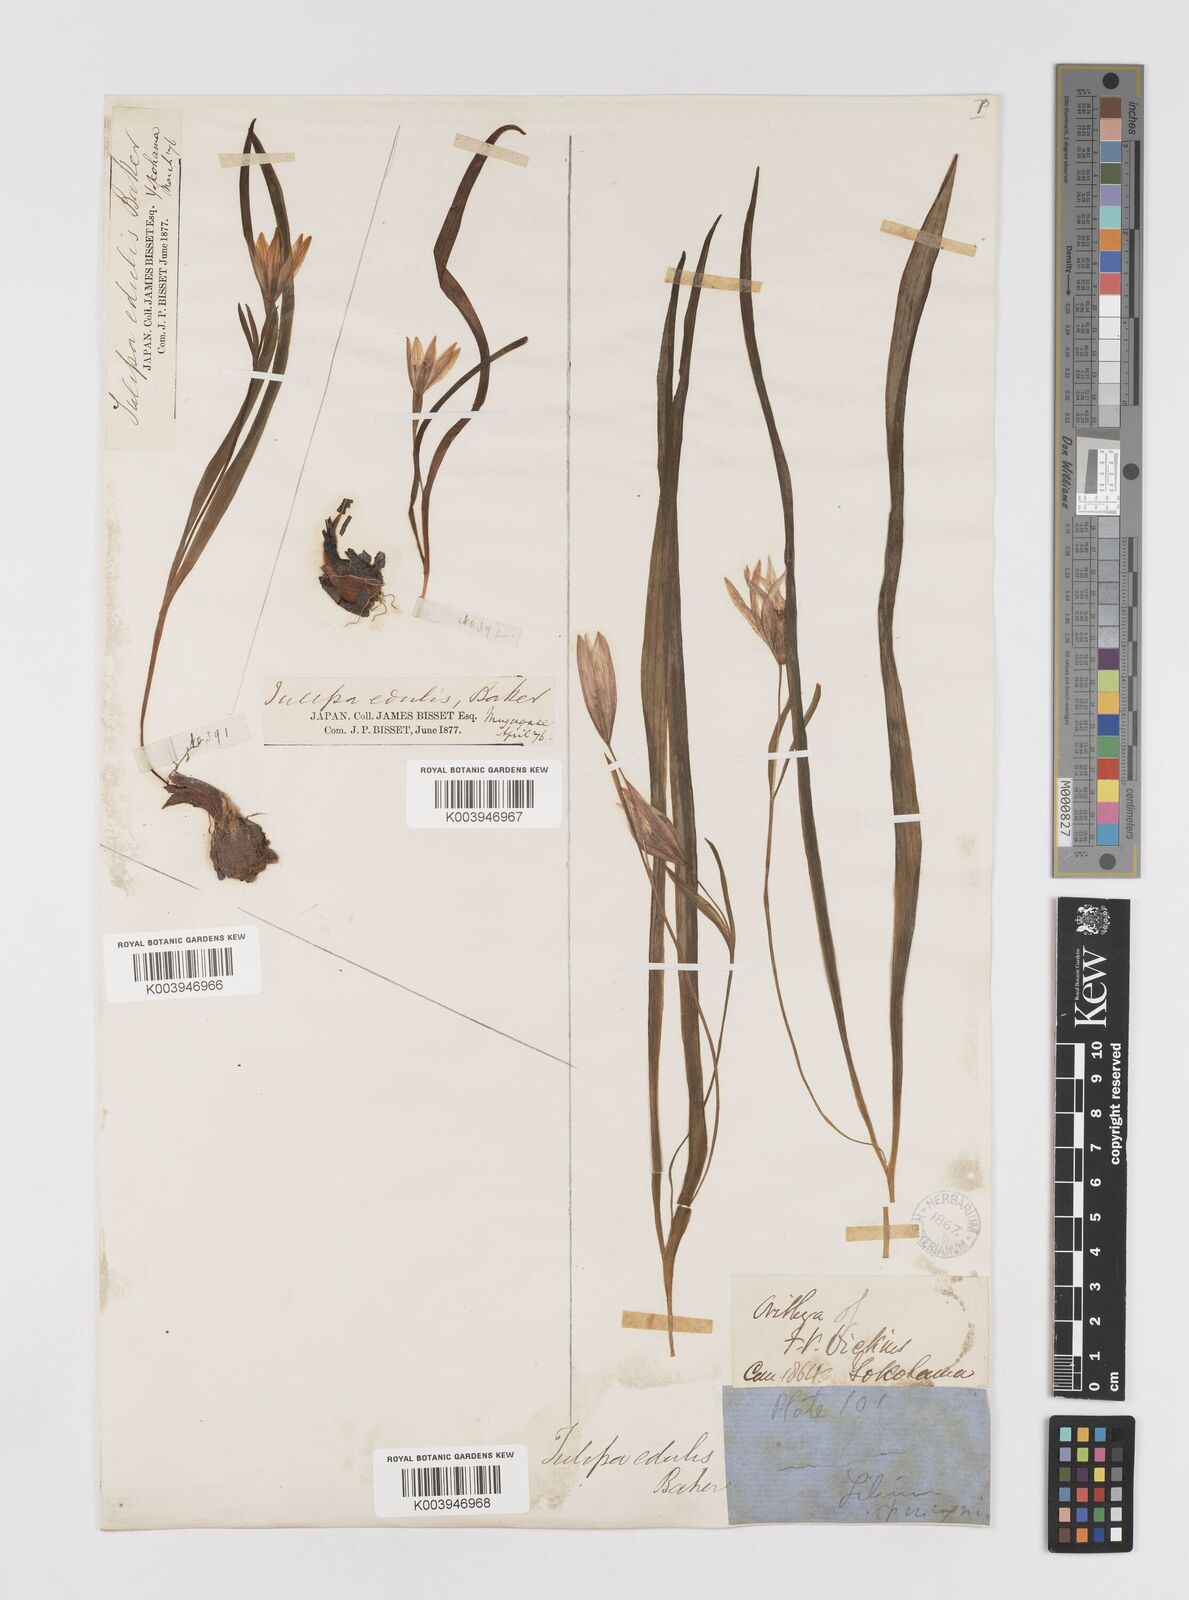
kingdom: Plantae
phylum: Tracheophyta
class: Liliopsida
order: Liliales
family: Liliaceae
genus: Amana
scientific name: Amana edulis
